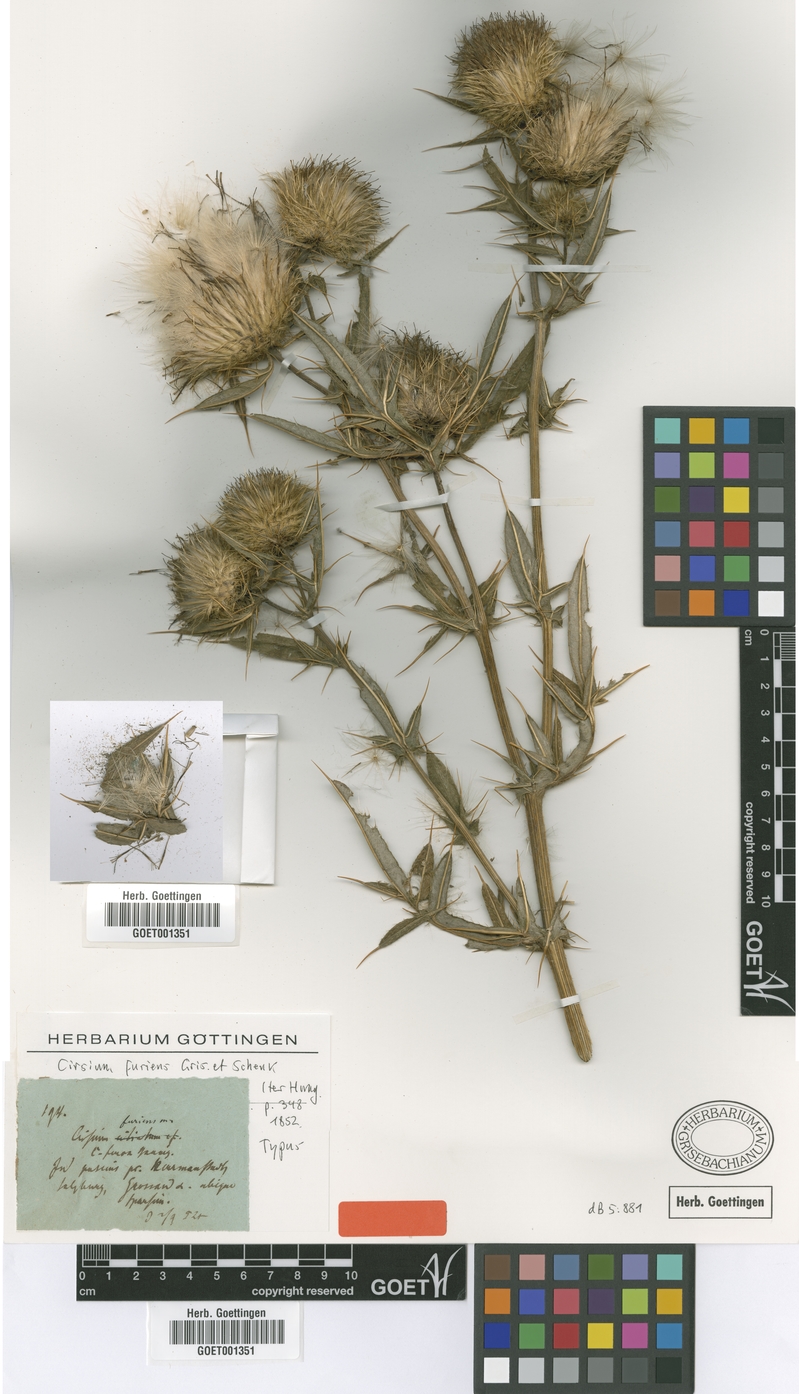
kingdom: Plantae
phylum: Tracheophyta
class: Magnoliopsida
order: Asterales
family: Asteraceae
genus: Lophiolepis
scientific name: Lophiolepis furiens
